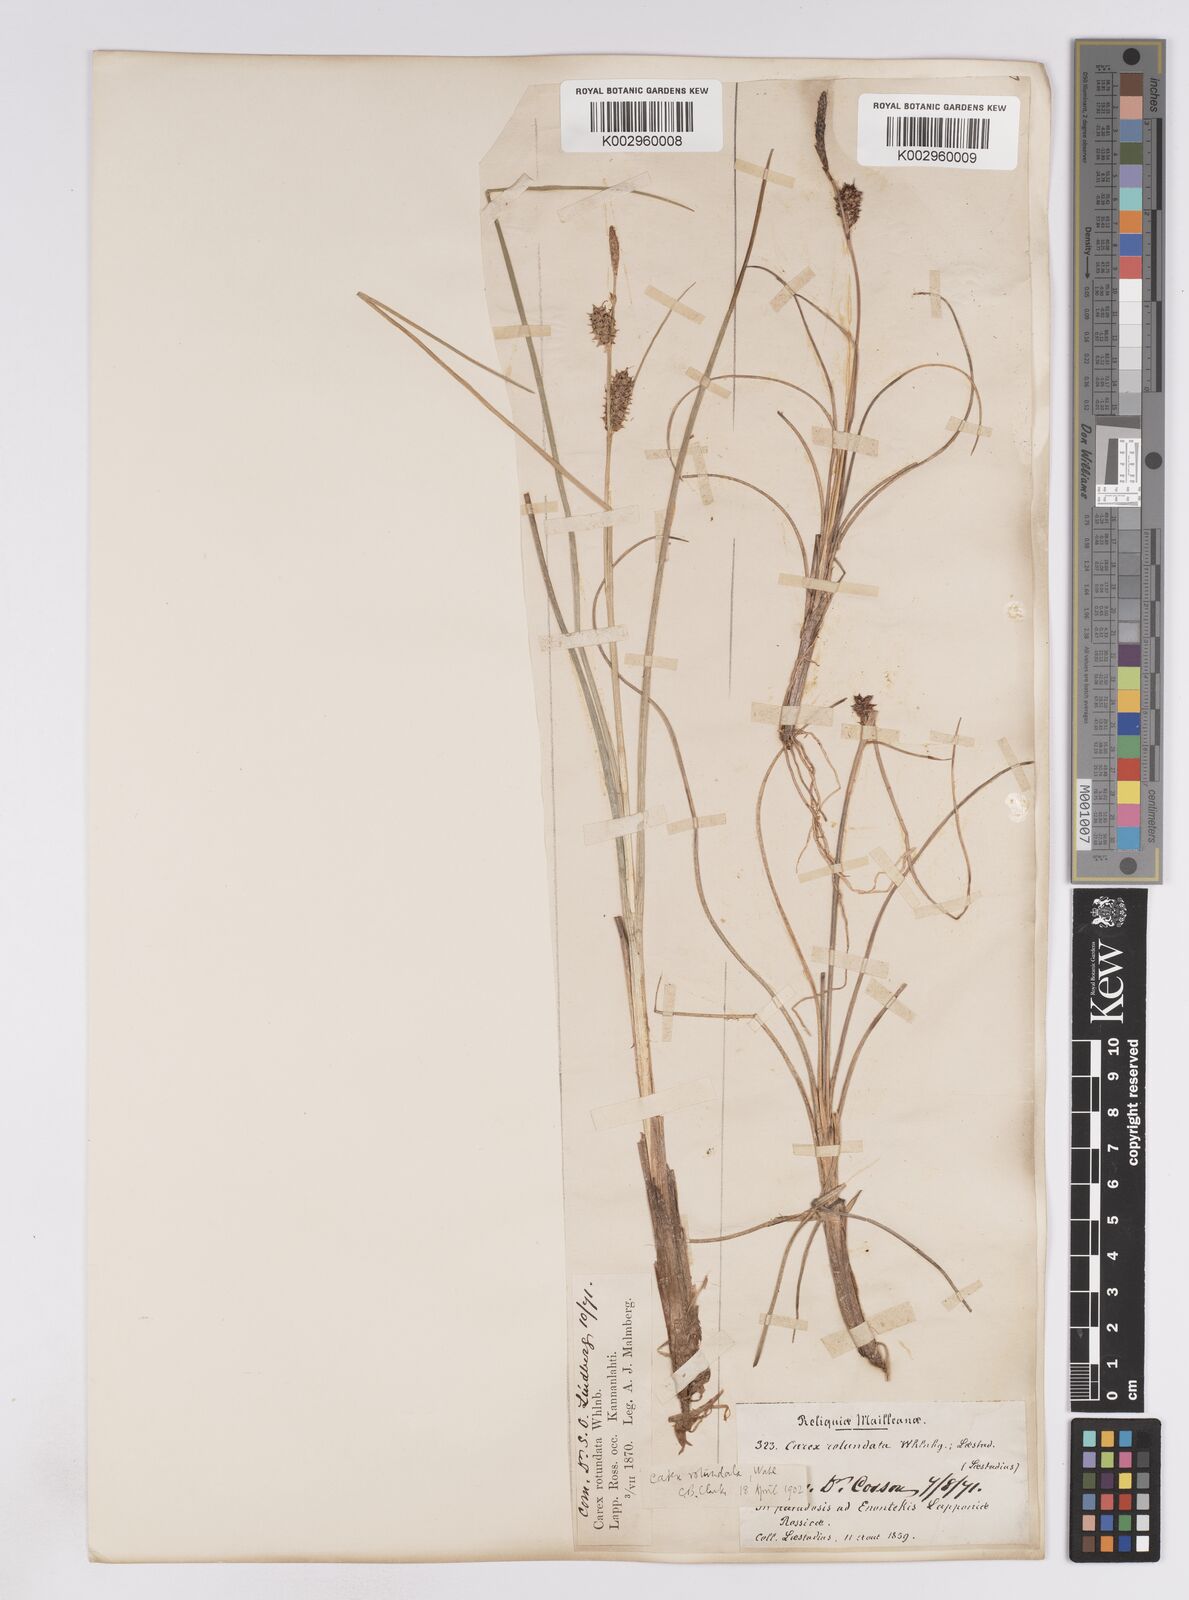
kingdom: Plantae
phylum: Tracheophyta
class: Liliopsida
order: Poales
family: Cyperaceae
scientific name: Cyperaceae
